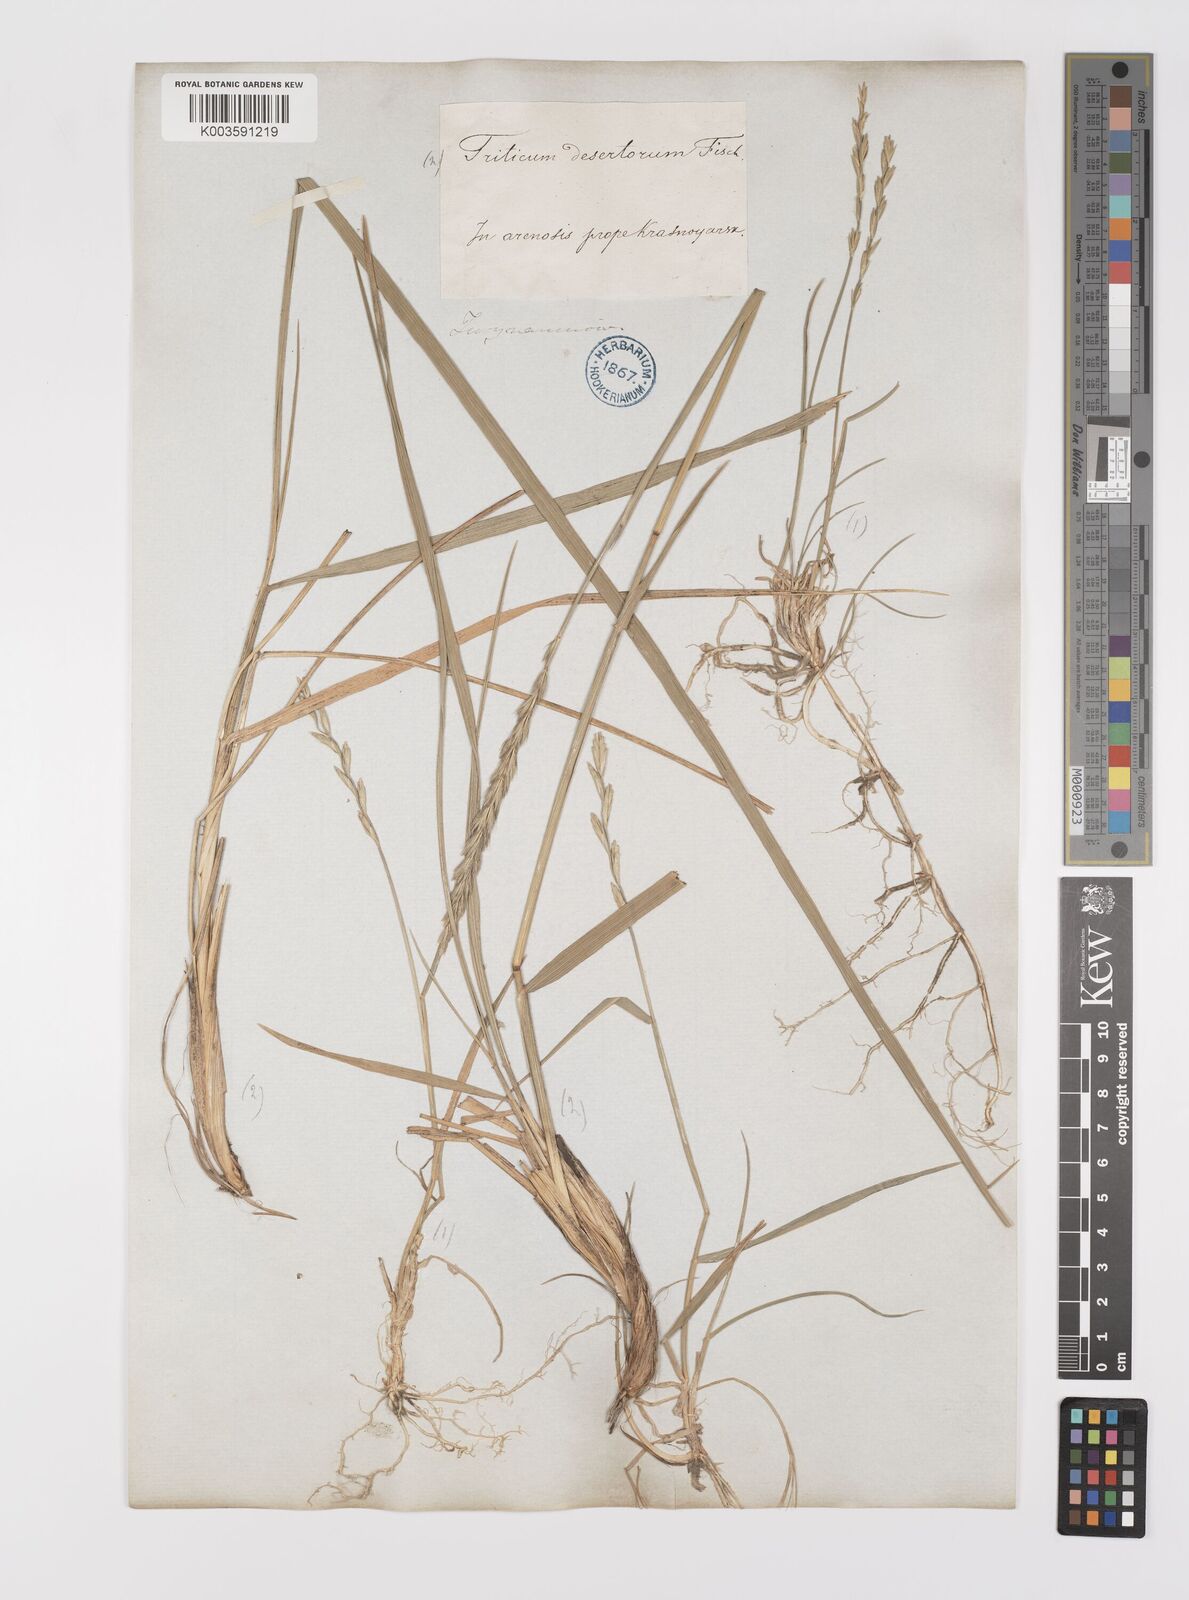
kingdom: Plantae
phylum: Tracheophyta
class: Liliopsida
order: Poales
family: Poaceae
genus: Leymus
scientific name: Leymus
